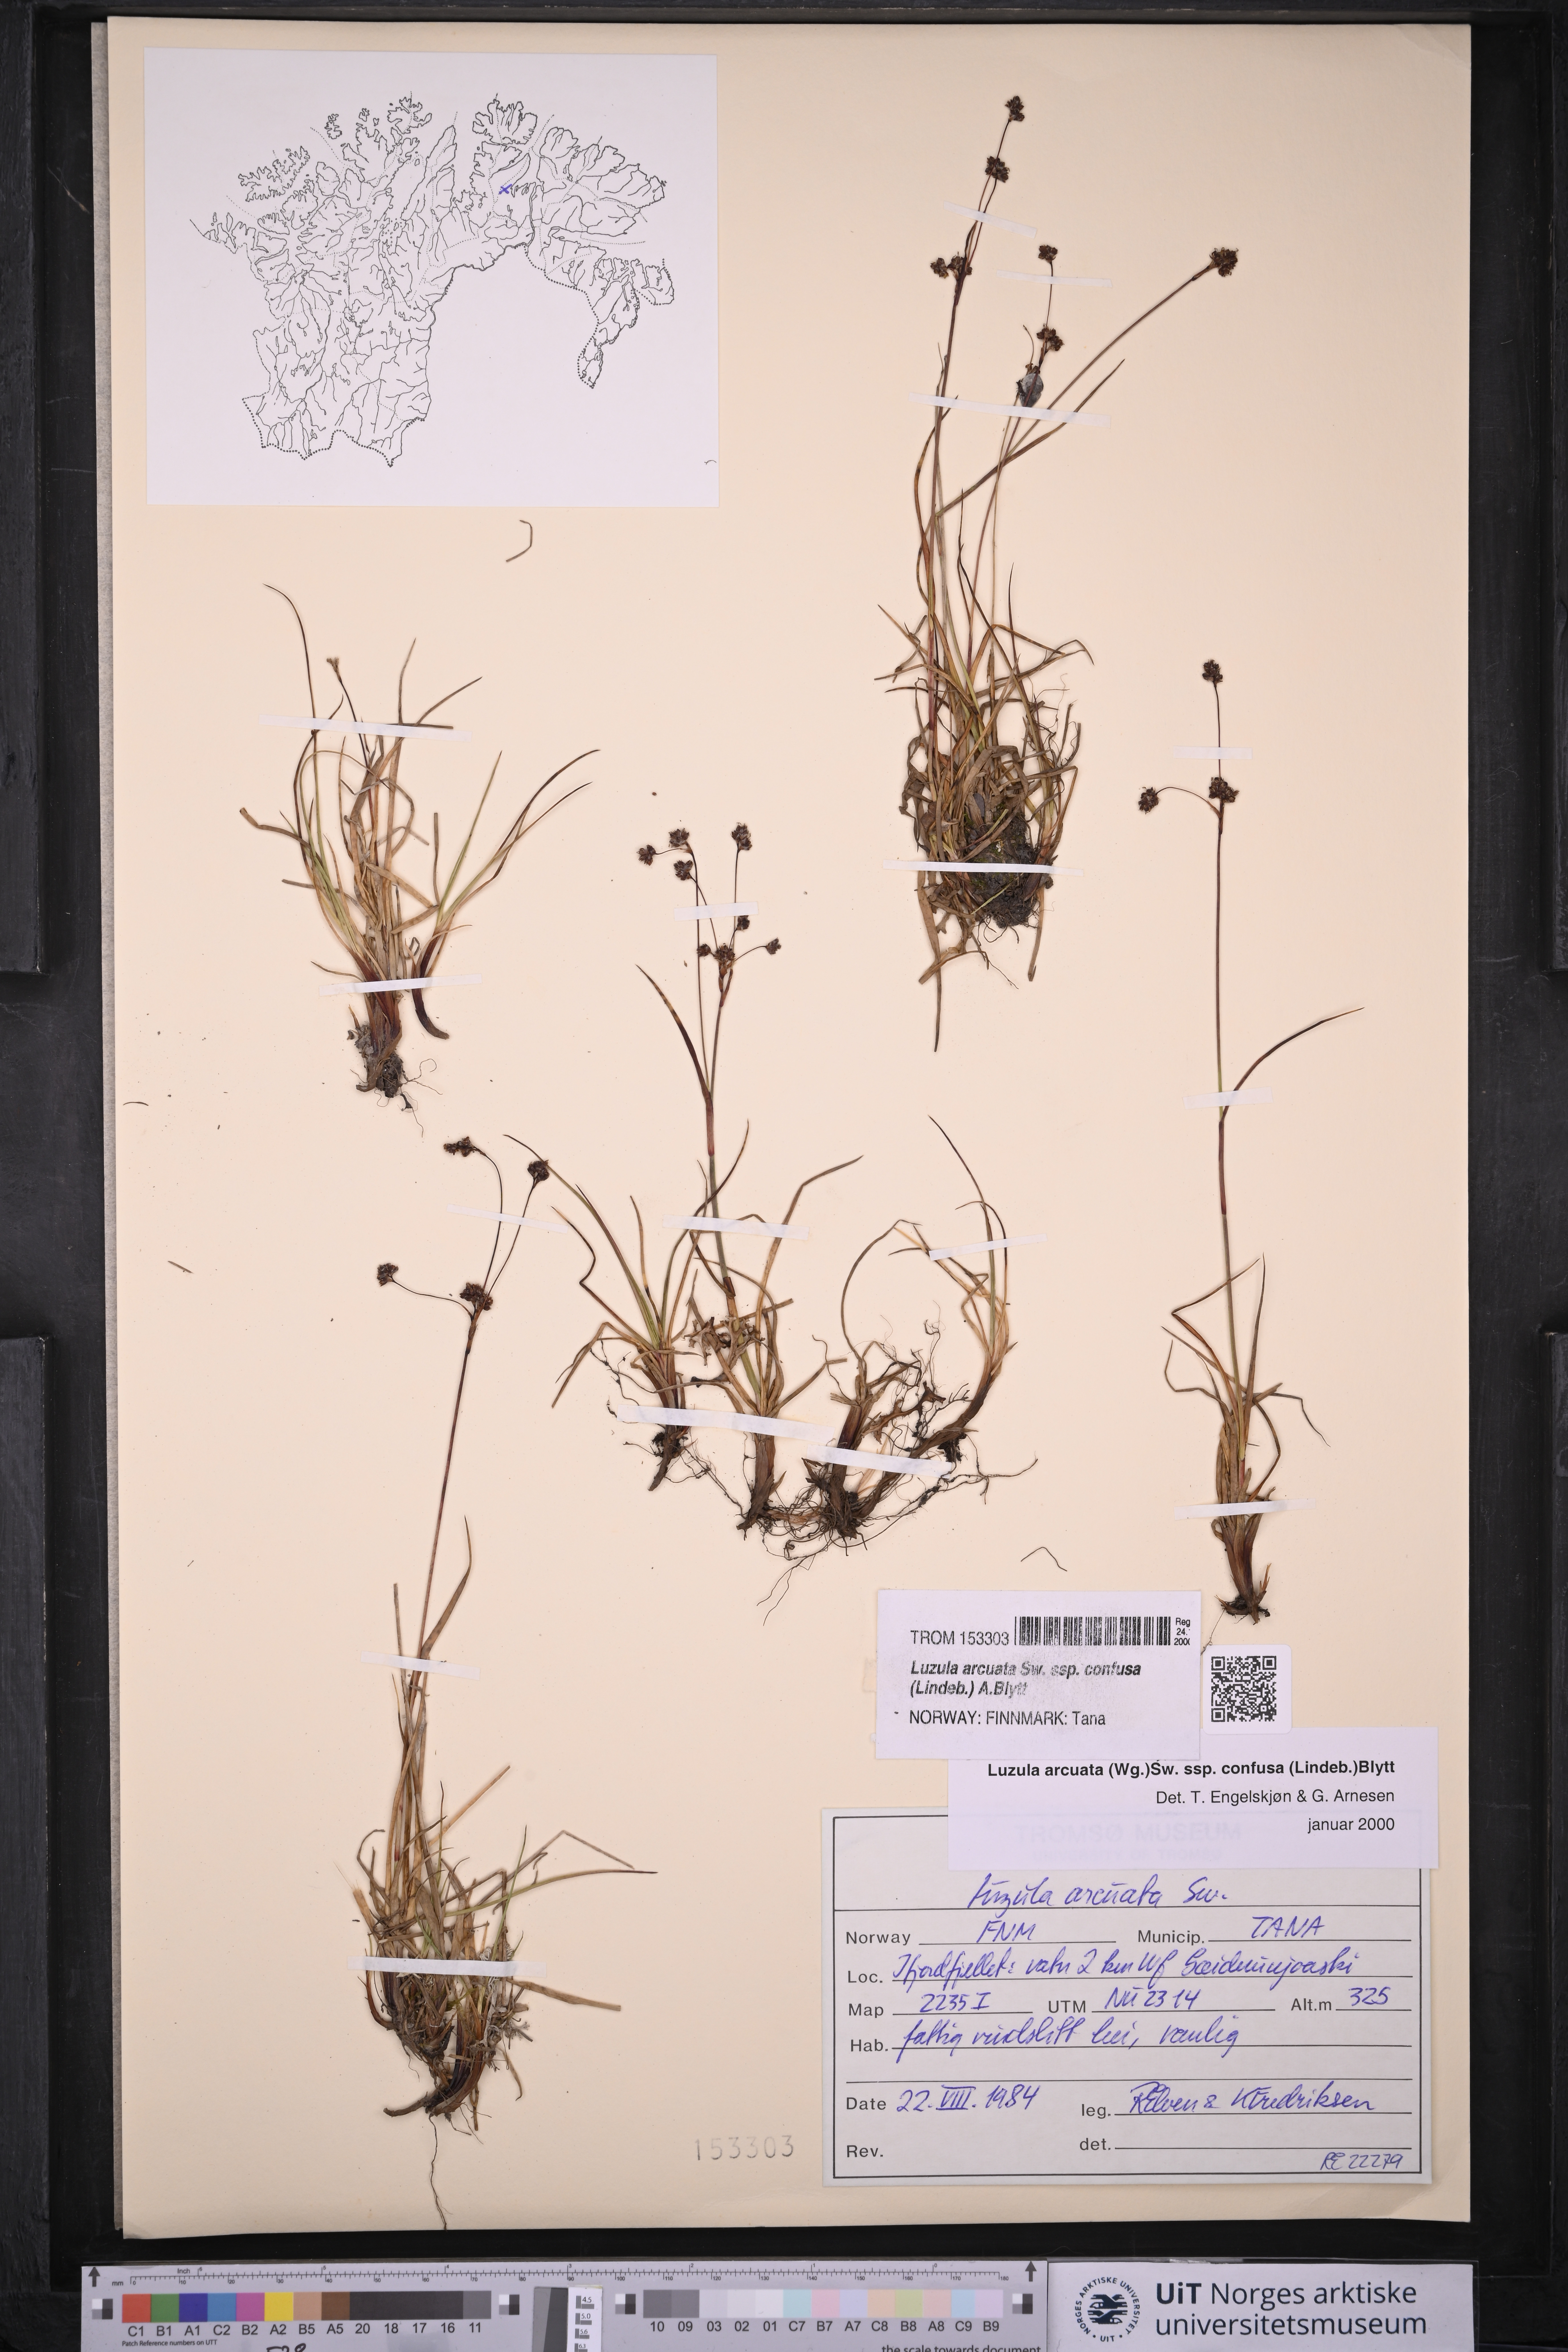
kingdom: Plantae
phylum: Tracheophyta
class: Liliopsida
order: Poales
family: Juncaceae
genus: Luzula
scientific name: Luzula confusa
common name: Northern wood rush
